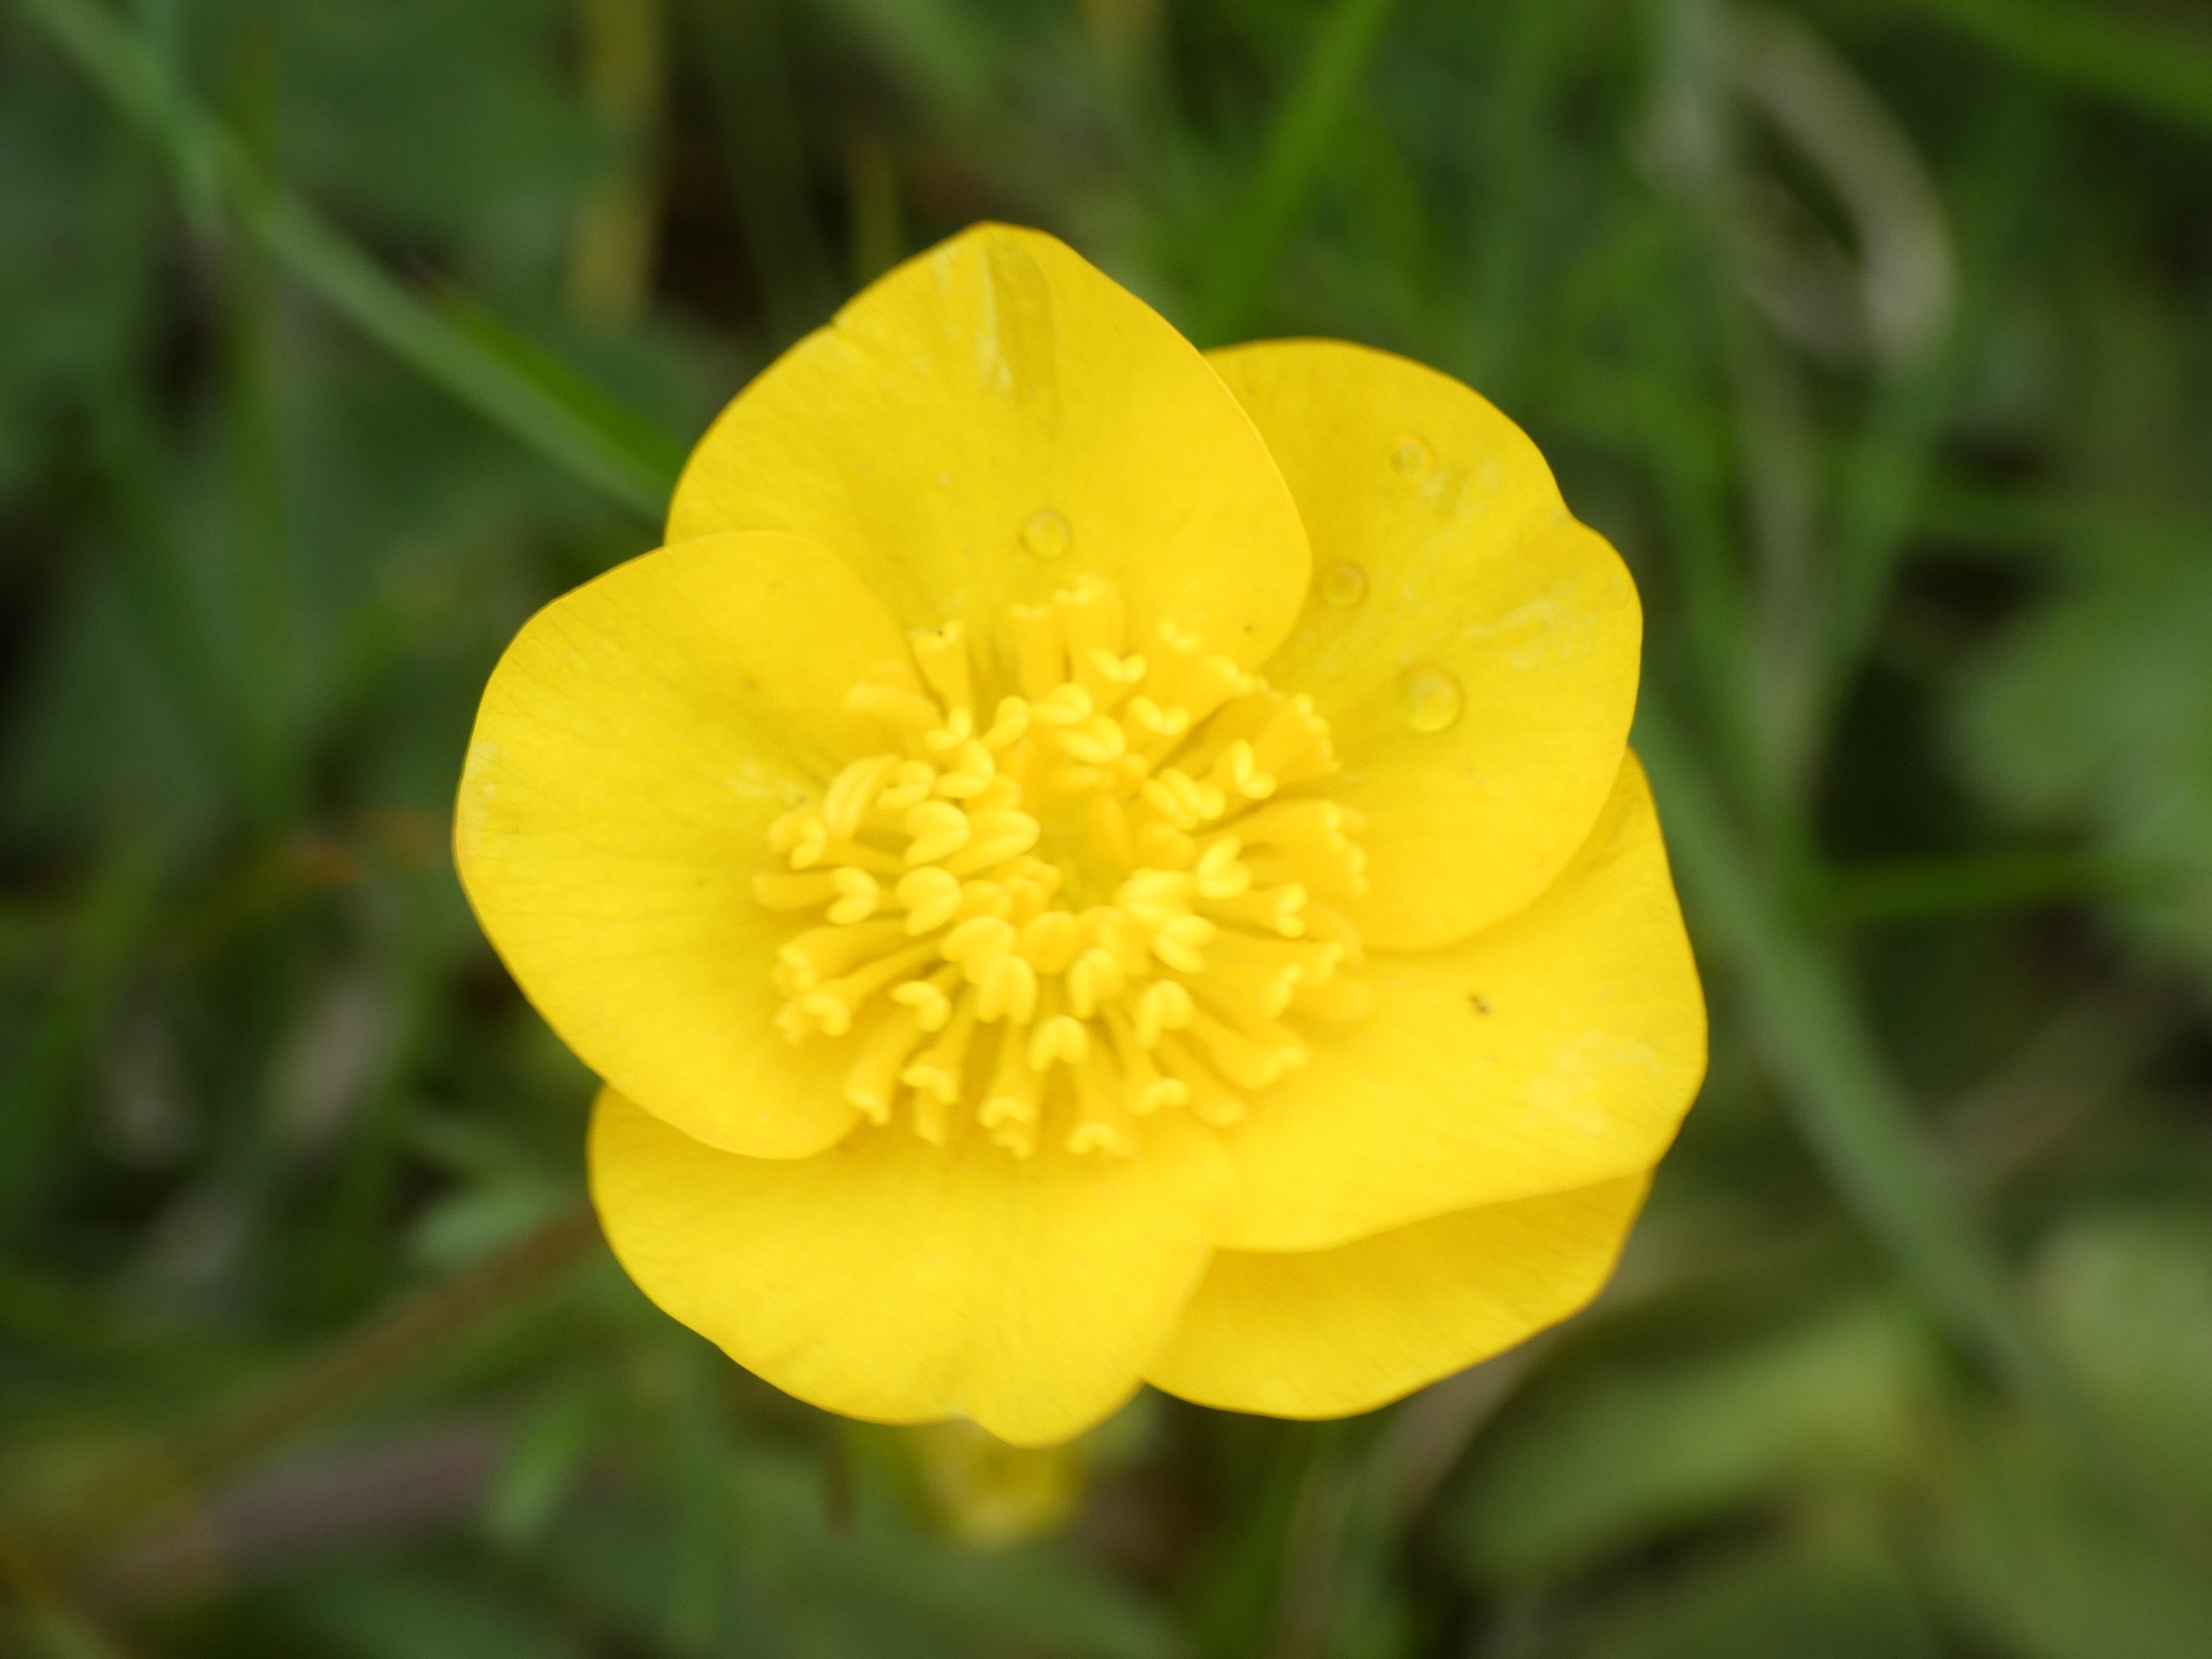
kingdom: Plantae
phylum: Tracheophyta
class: Magnoliopsida
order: Ranunculales
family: Ranunculaceae
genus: Ranunculus
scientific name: Ranunculus bulbosus
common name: Knold-ranunkel
